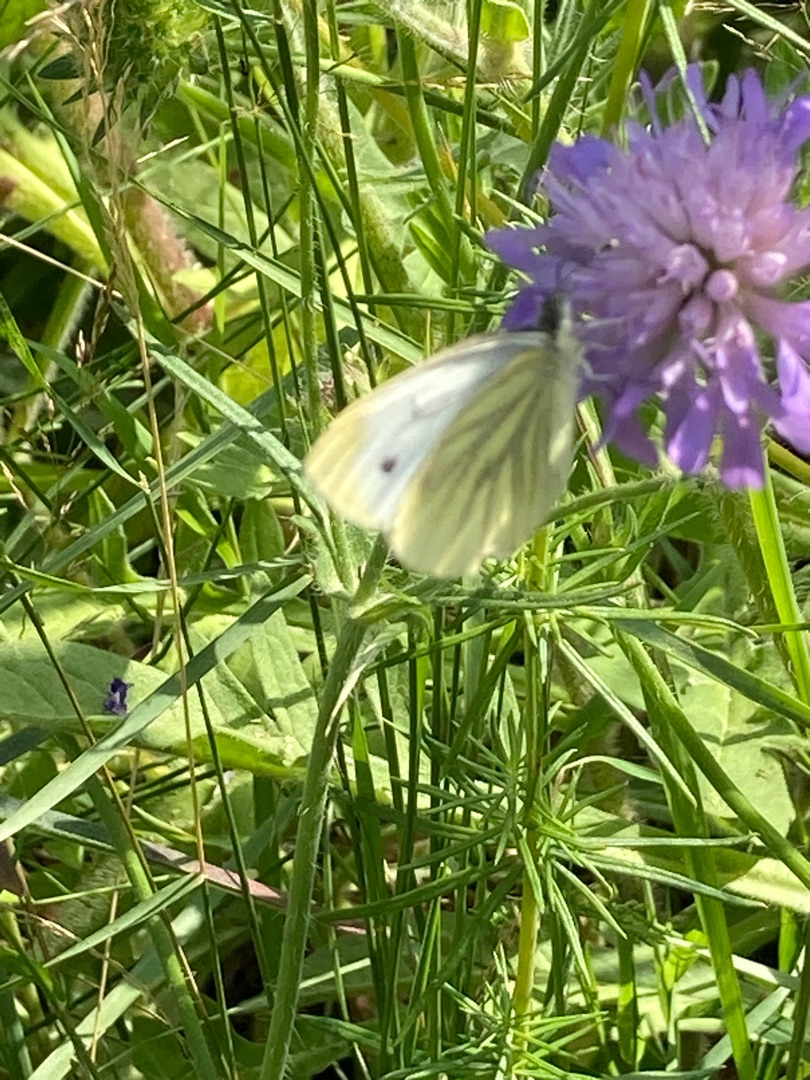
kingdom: Animalia
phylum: Arthropoda
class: Insecta
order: Lepidoptera
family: Pieridae
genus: Pieris
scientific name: Pieris napi
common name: Grønåret kålsommerfugl
